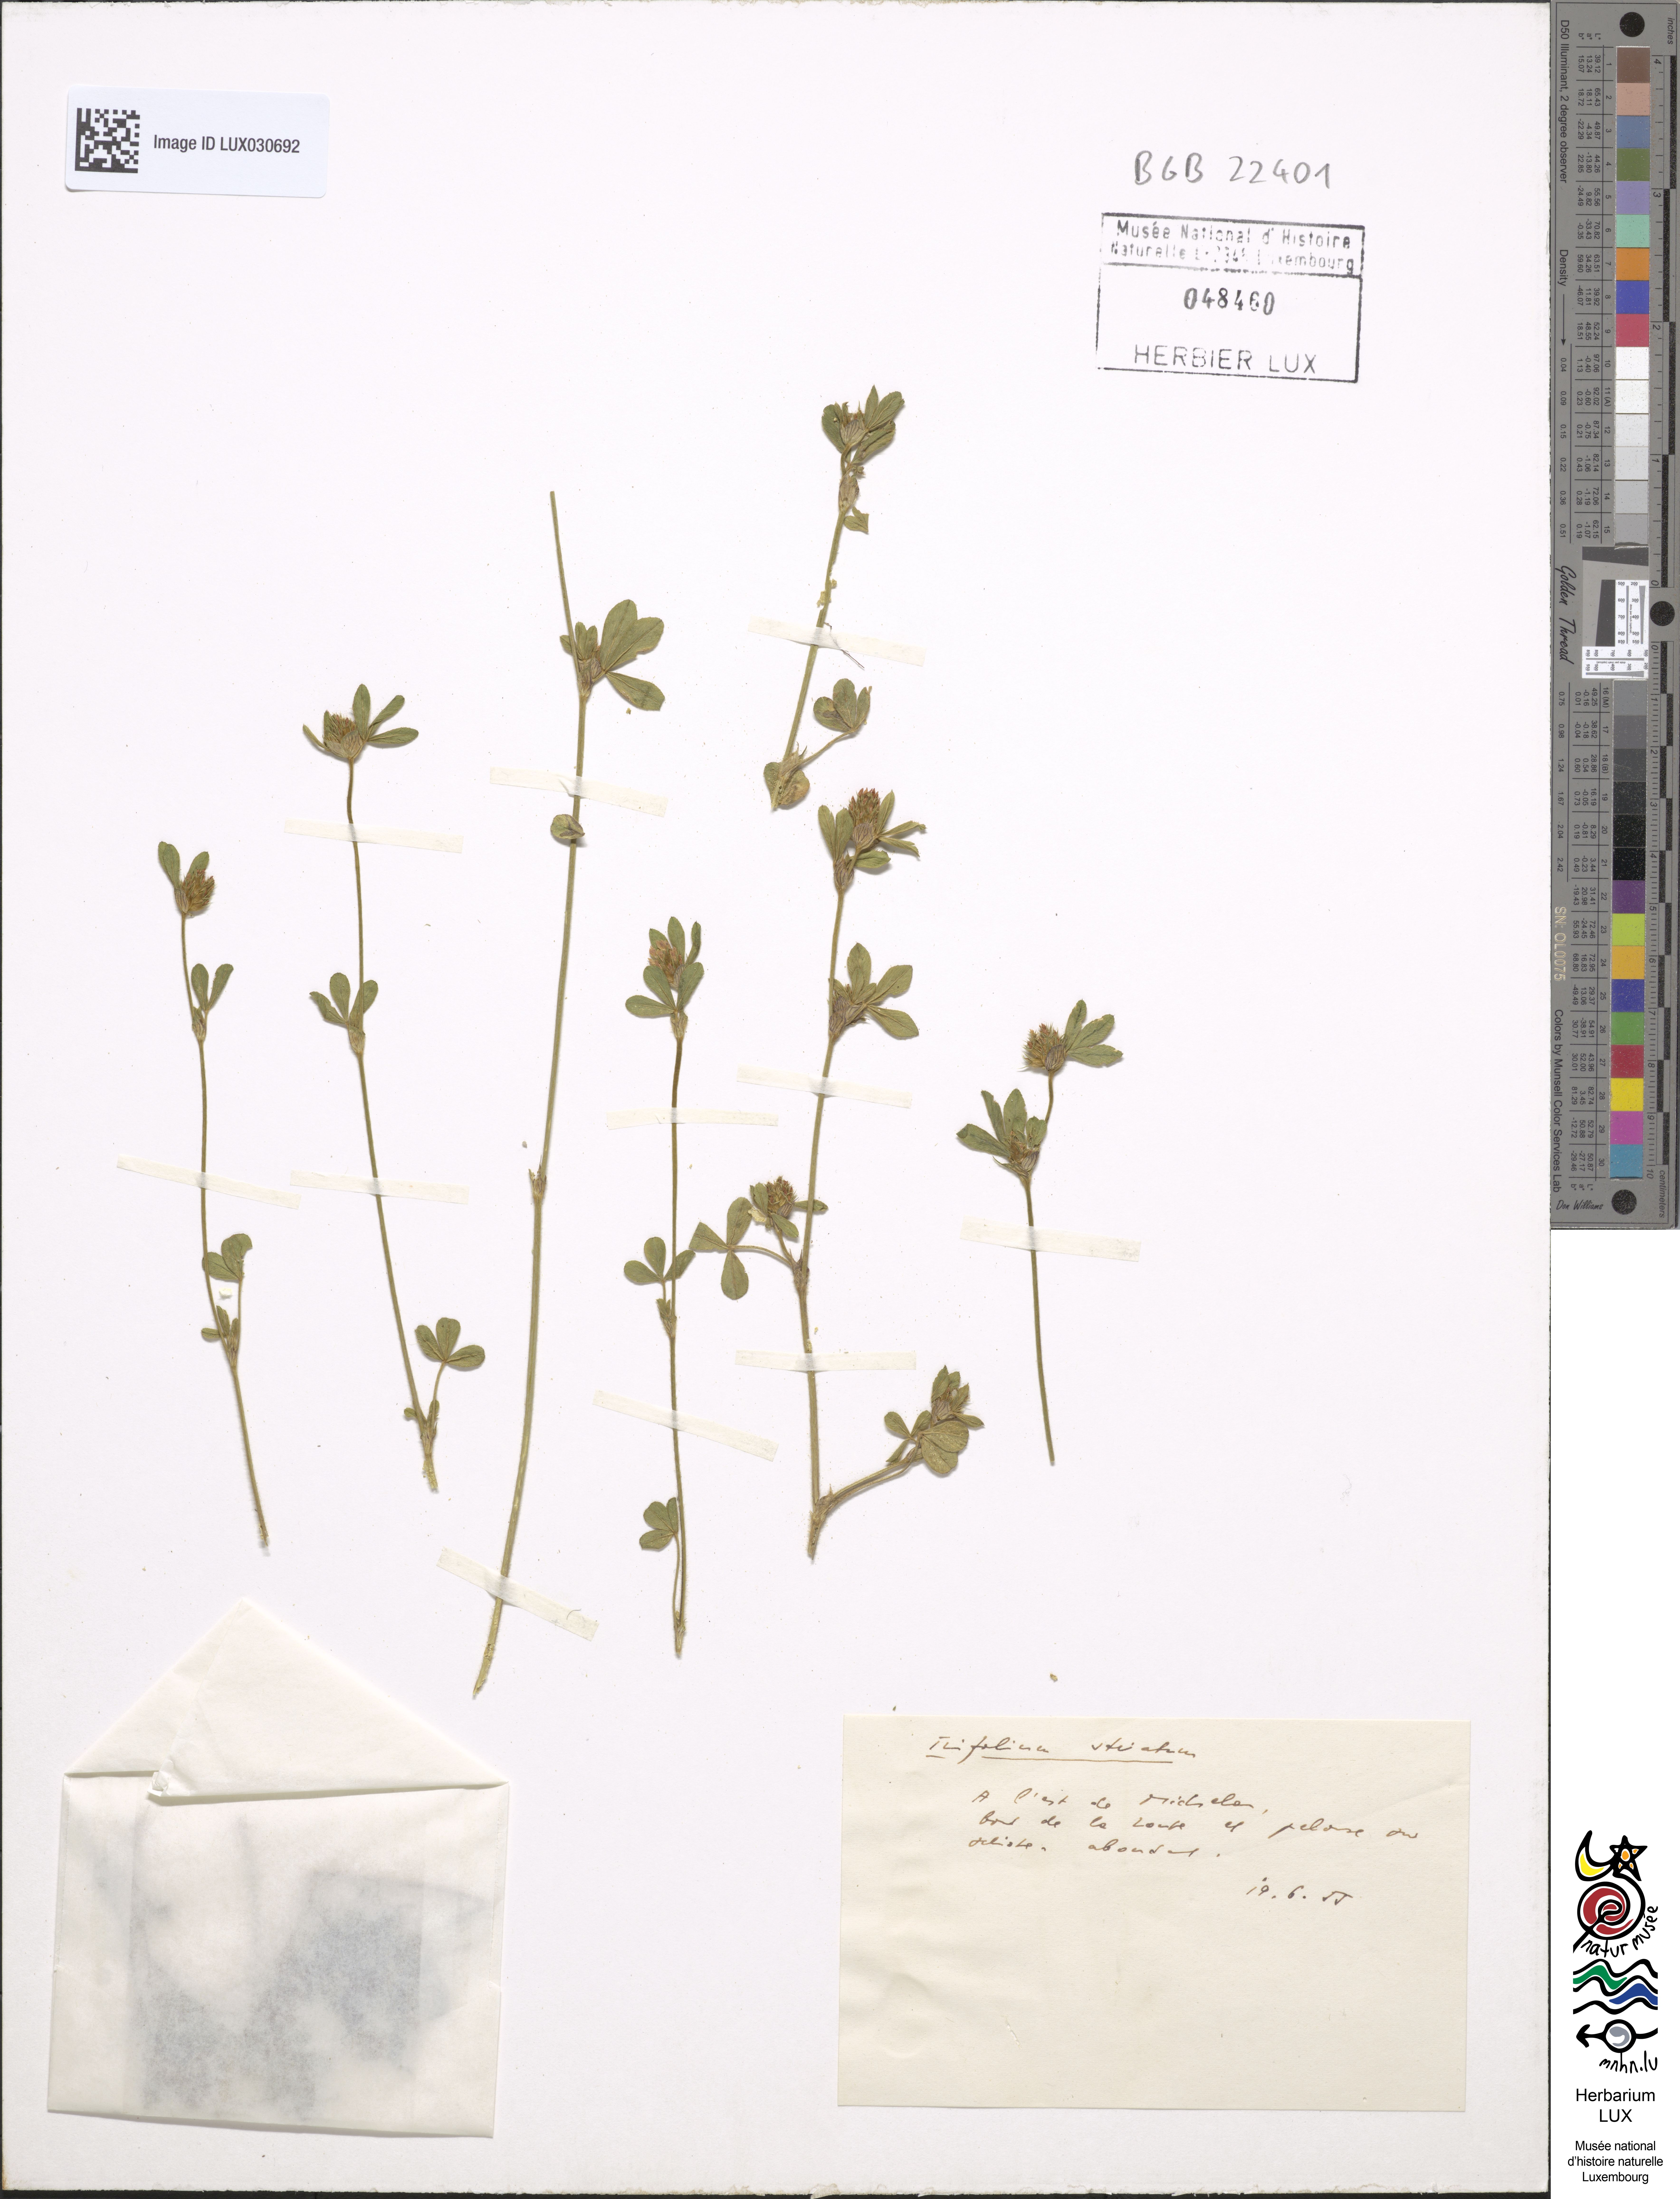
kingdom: Plantae
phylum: Tracheophyta
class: Magnoliopsida
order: Fabales
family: Fabaceae
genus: Trifolium
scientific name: Trifolium striatum
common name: Knotted clover
